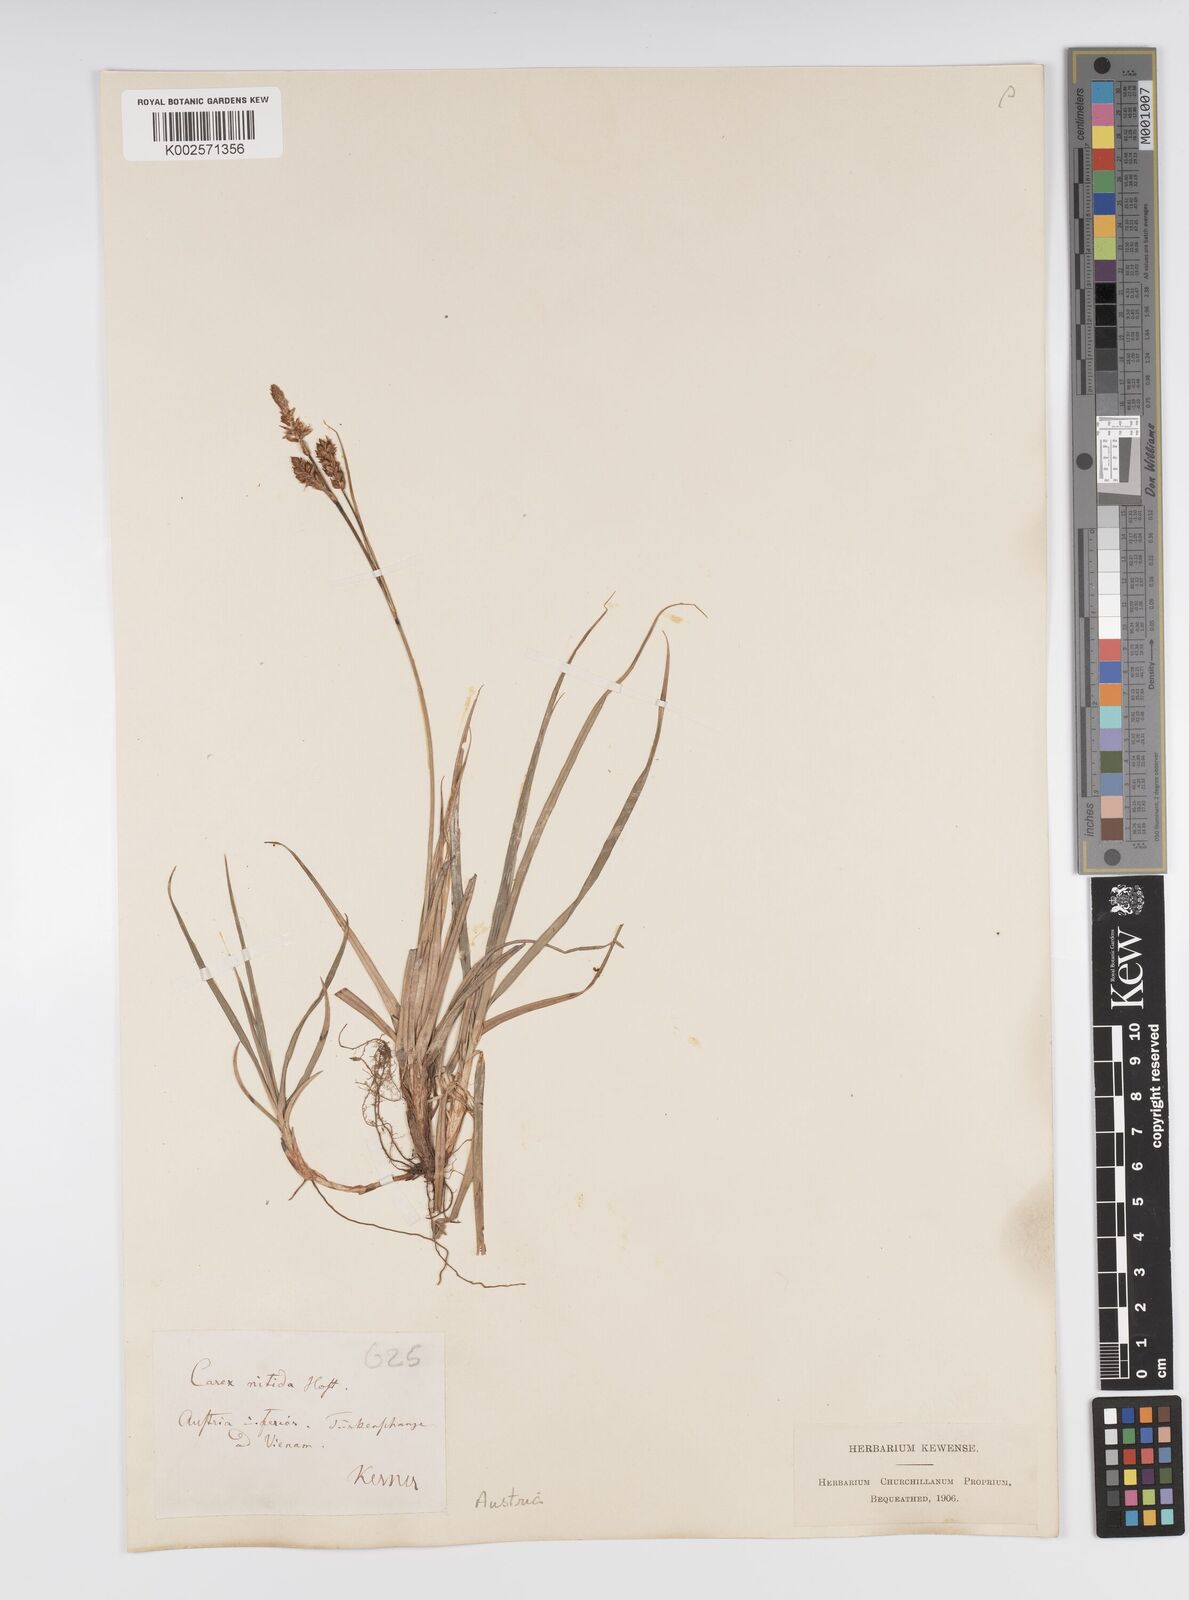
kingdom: Plantae
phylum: Tracheophyta
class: Liliopsida
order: Poales
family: Cyperaceae
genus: Carex
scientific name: Carex liparocarpos
